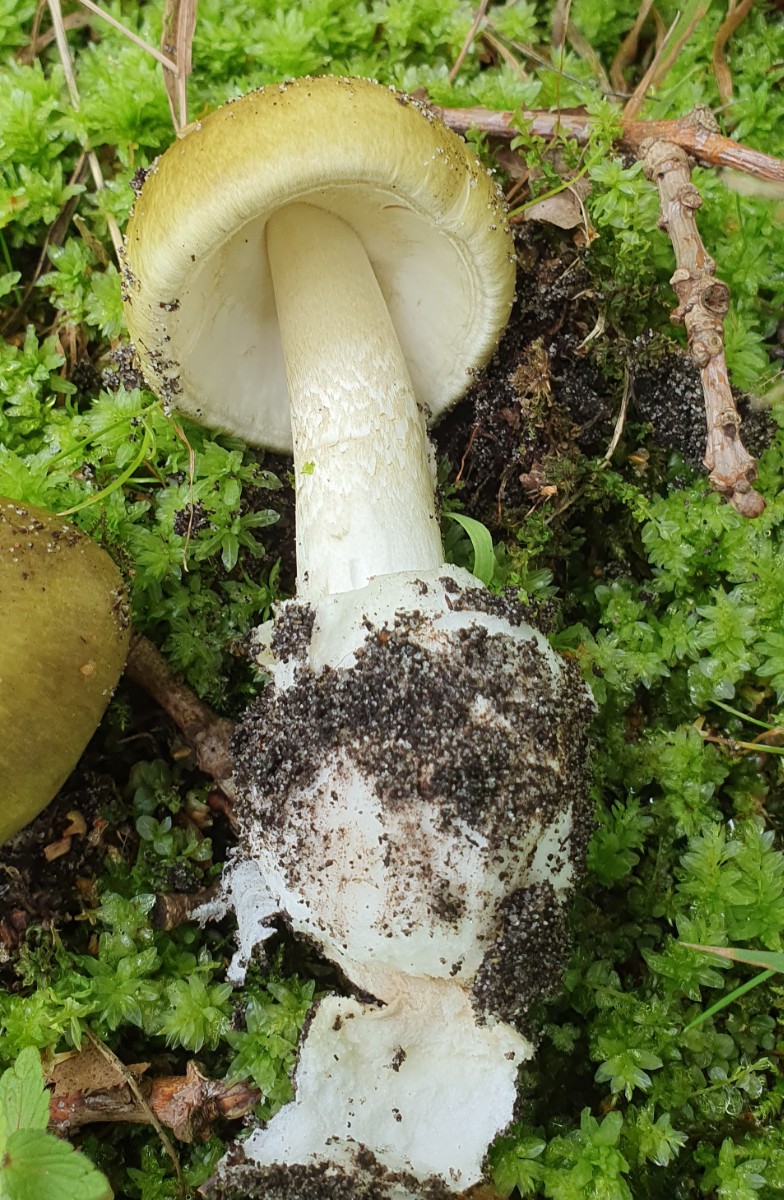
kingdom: Fungi
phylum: Basidiomycota
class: Agaricomycetes
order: Agaricales
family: Amanitaceae
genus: Amanita
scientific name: Amanita phalloides
